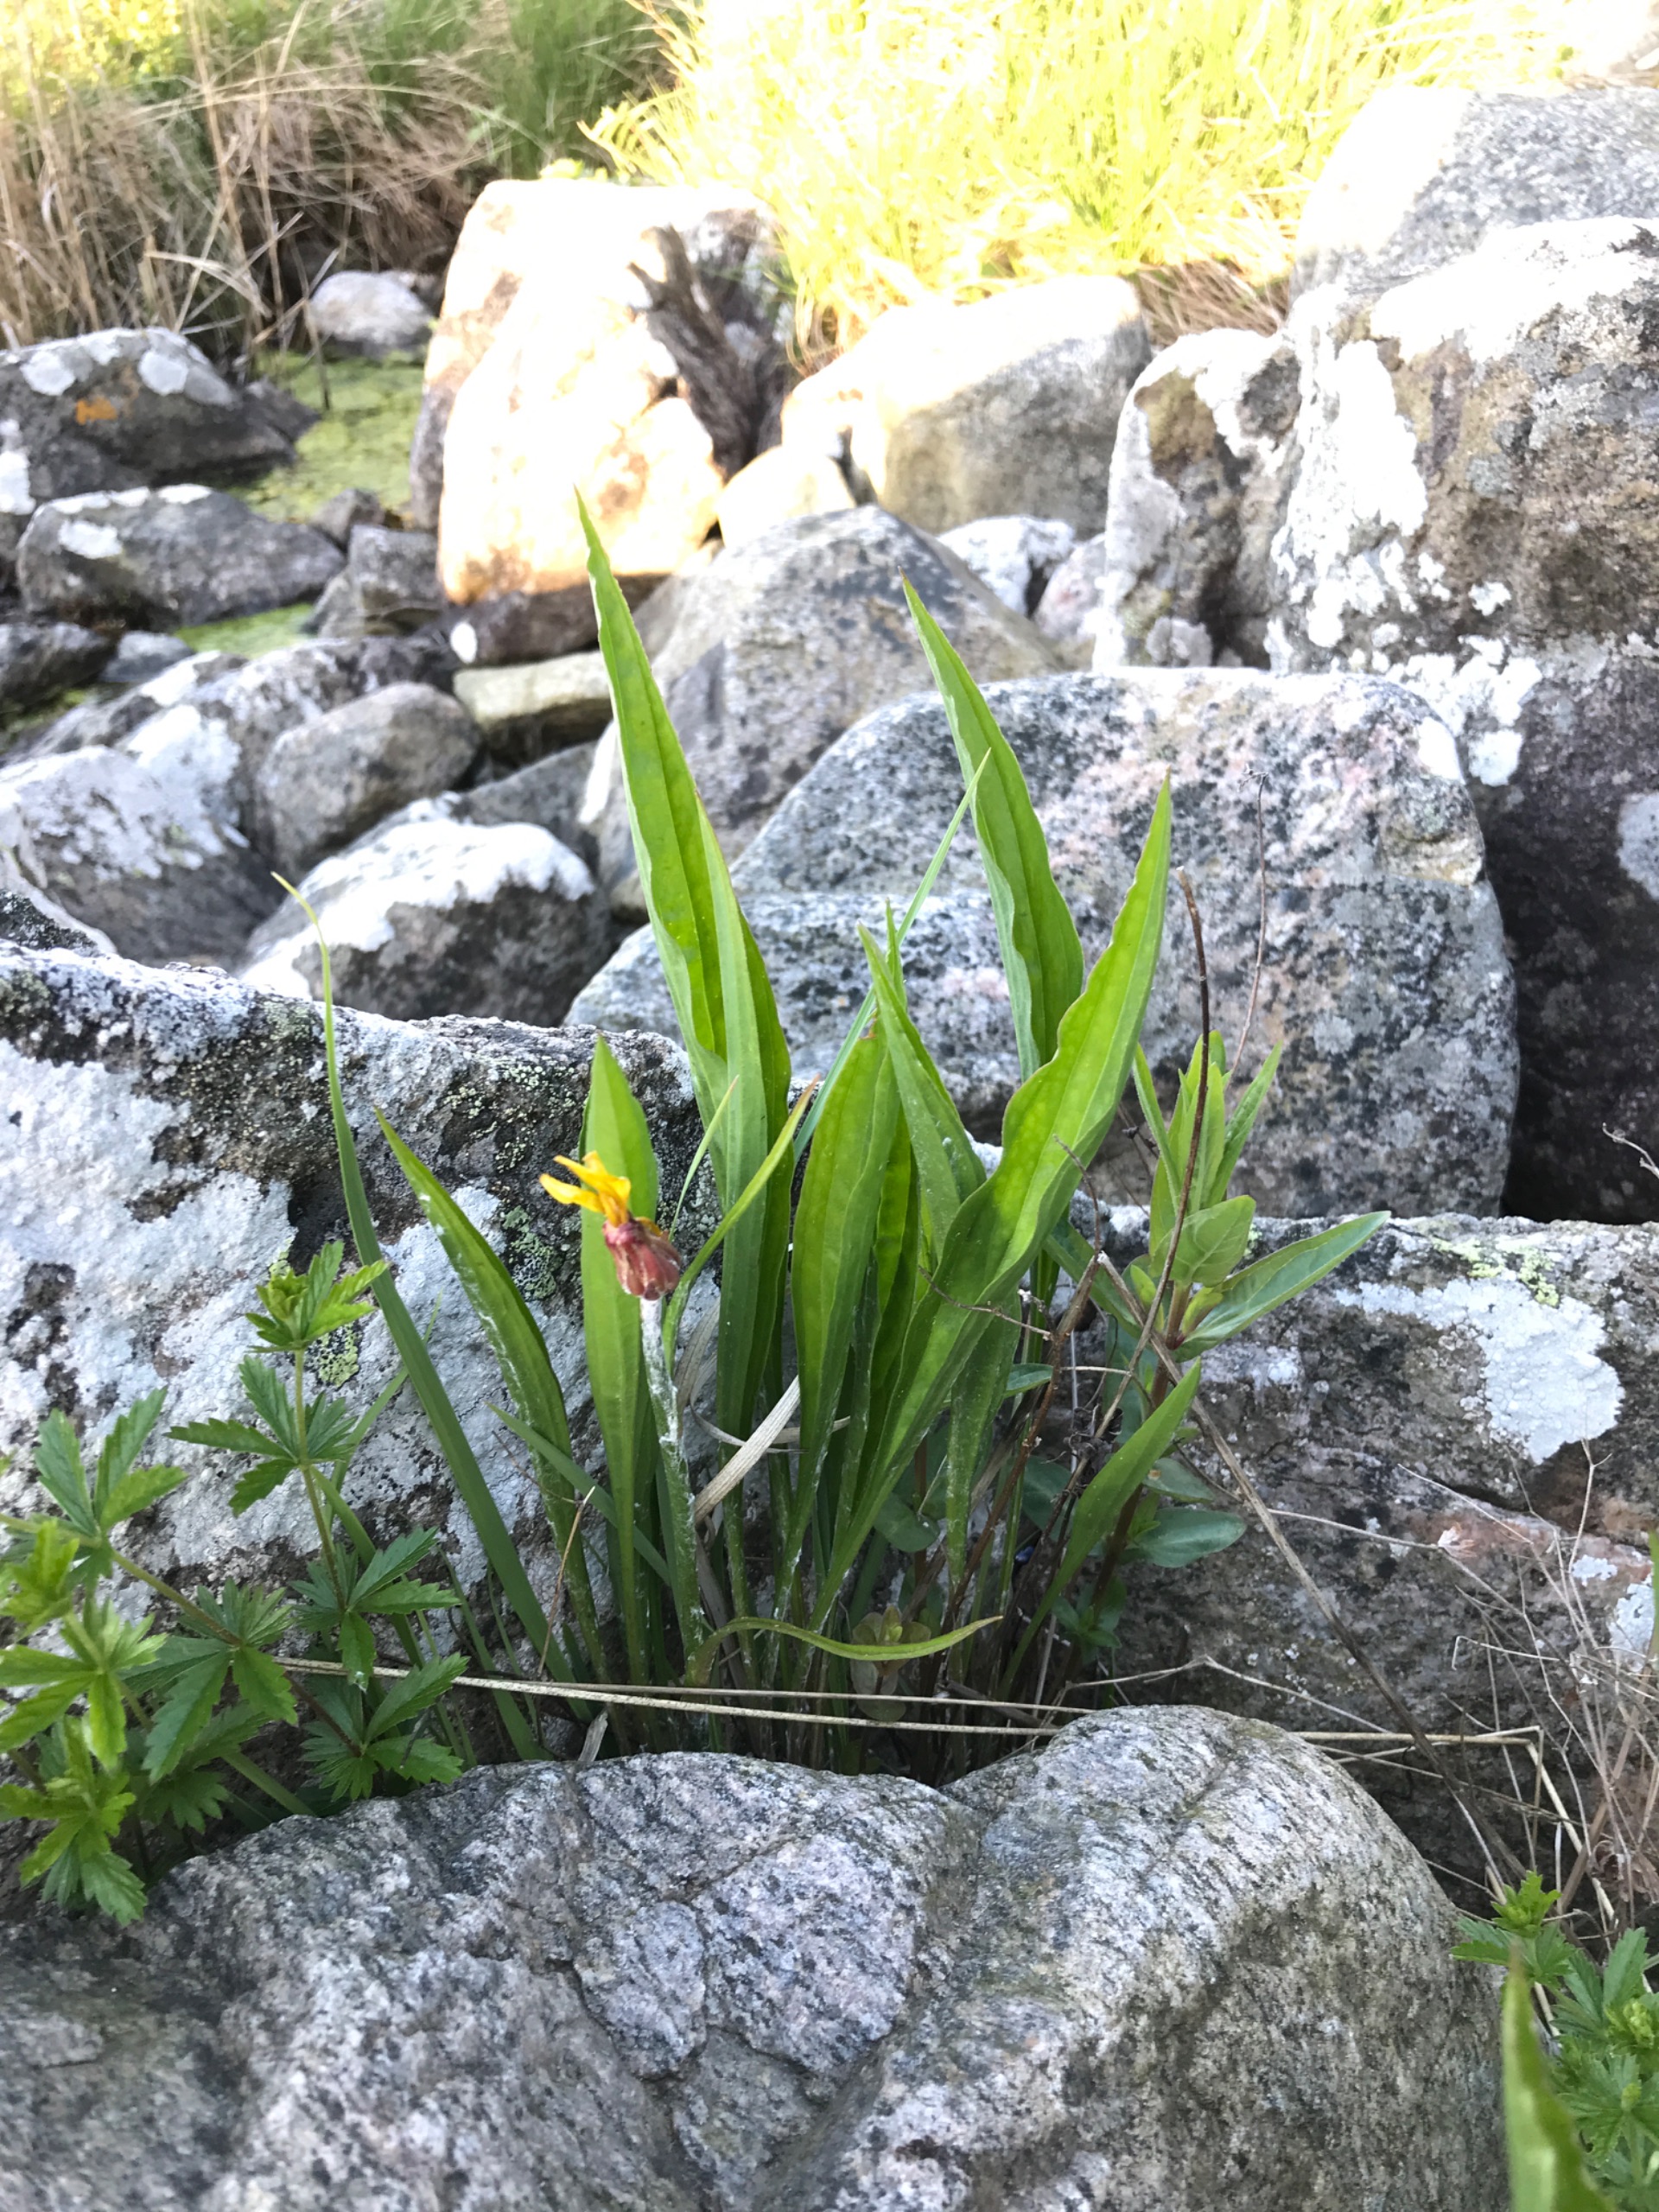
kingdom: Plantae
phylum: Tracheophyta
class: Magnoliopsida
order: Asterales
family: Asteraceae
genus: Scorzonera
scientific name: Scorzonera humilis
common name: Lav skorsoner
